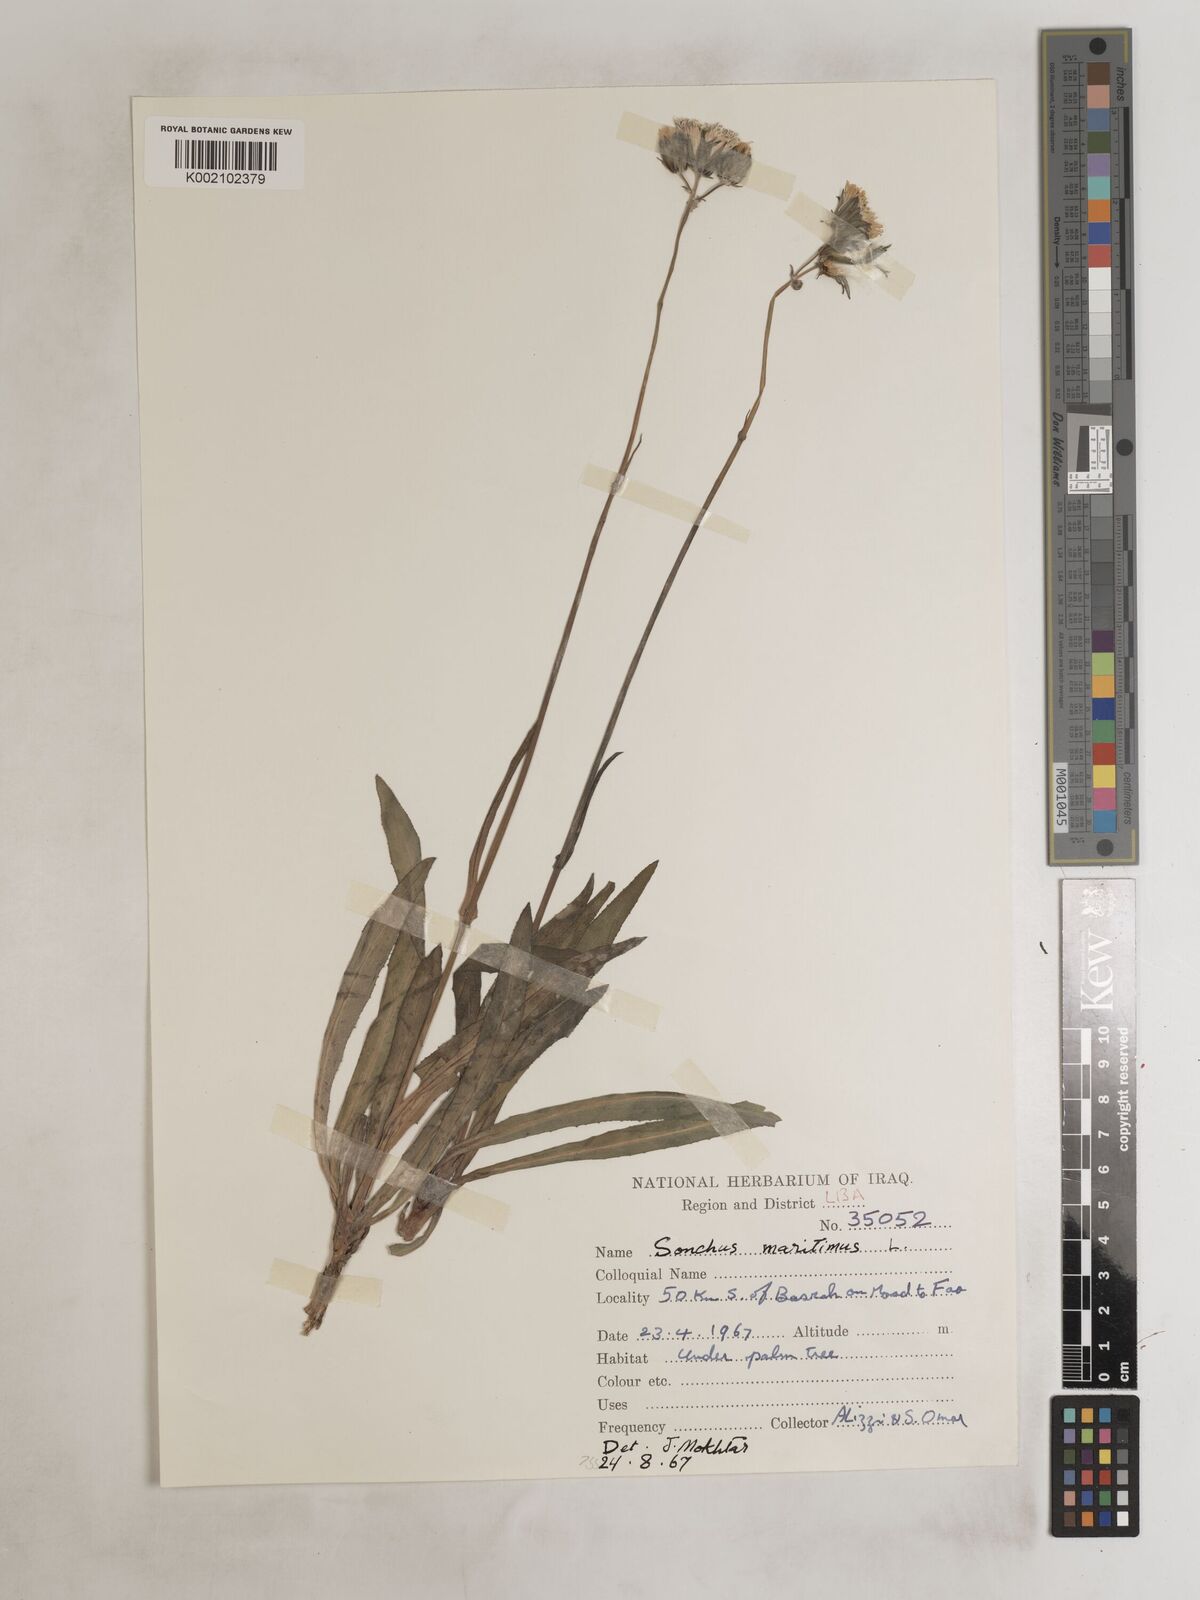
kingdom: Plantae
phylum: Tracheophyta
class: Magnoliopsida
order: Asterales
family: Asteraceae
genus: Sonchus
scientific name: Sonchus maritimus
